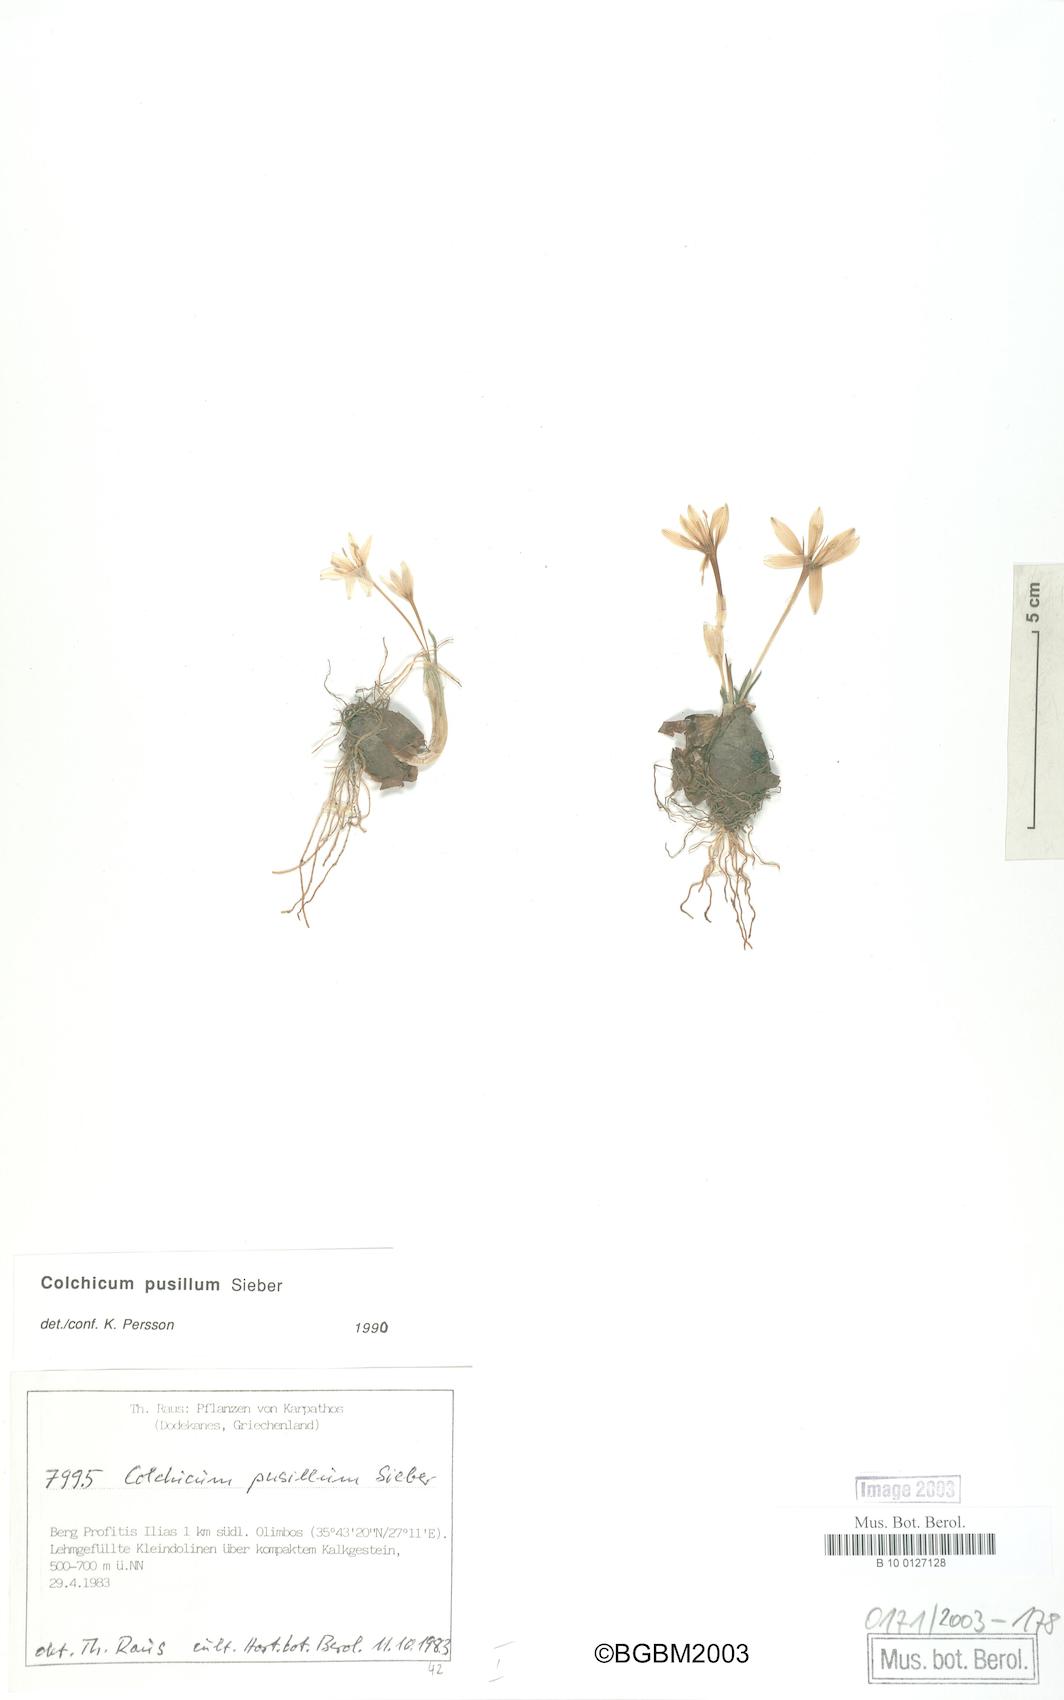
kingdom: Plantae
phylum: Tracheophyta
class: Liliopsida
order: Liliales
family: Colchicaceae
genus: Colchicum
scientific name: Colchicum pusillum
